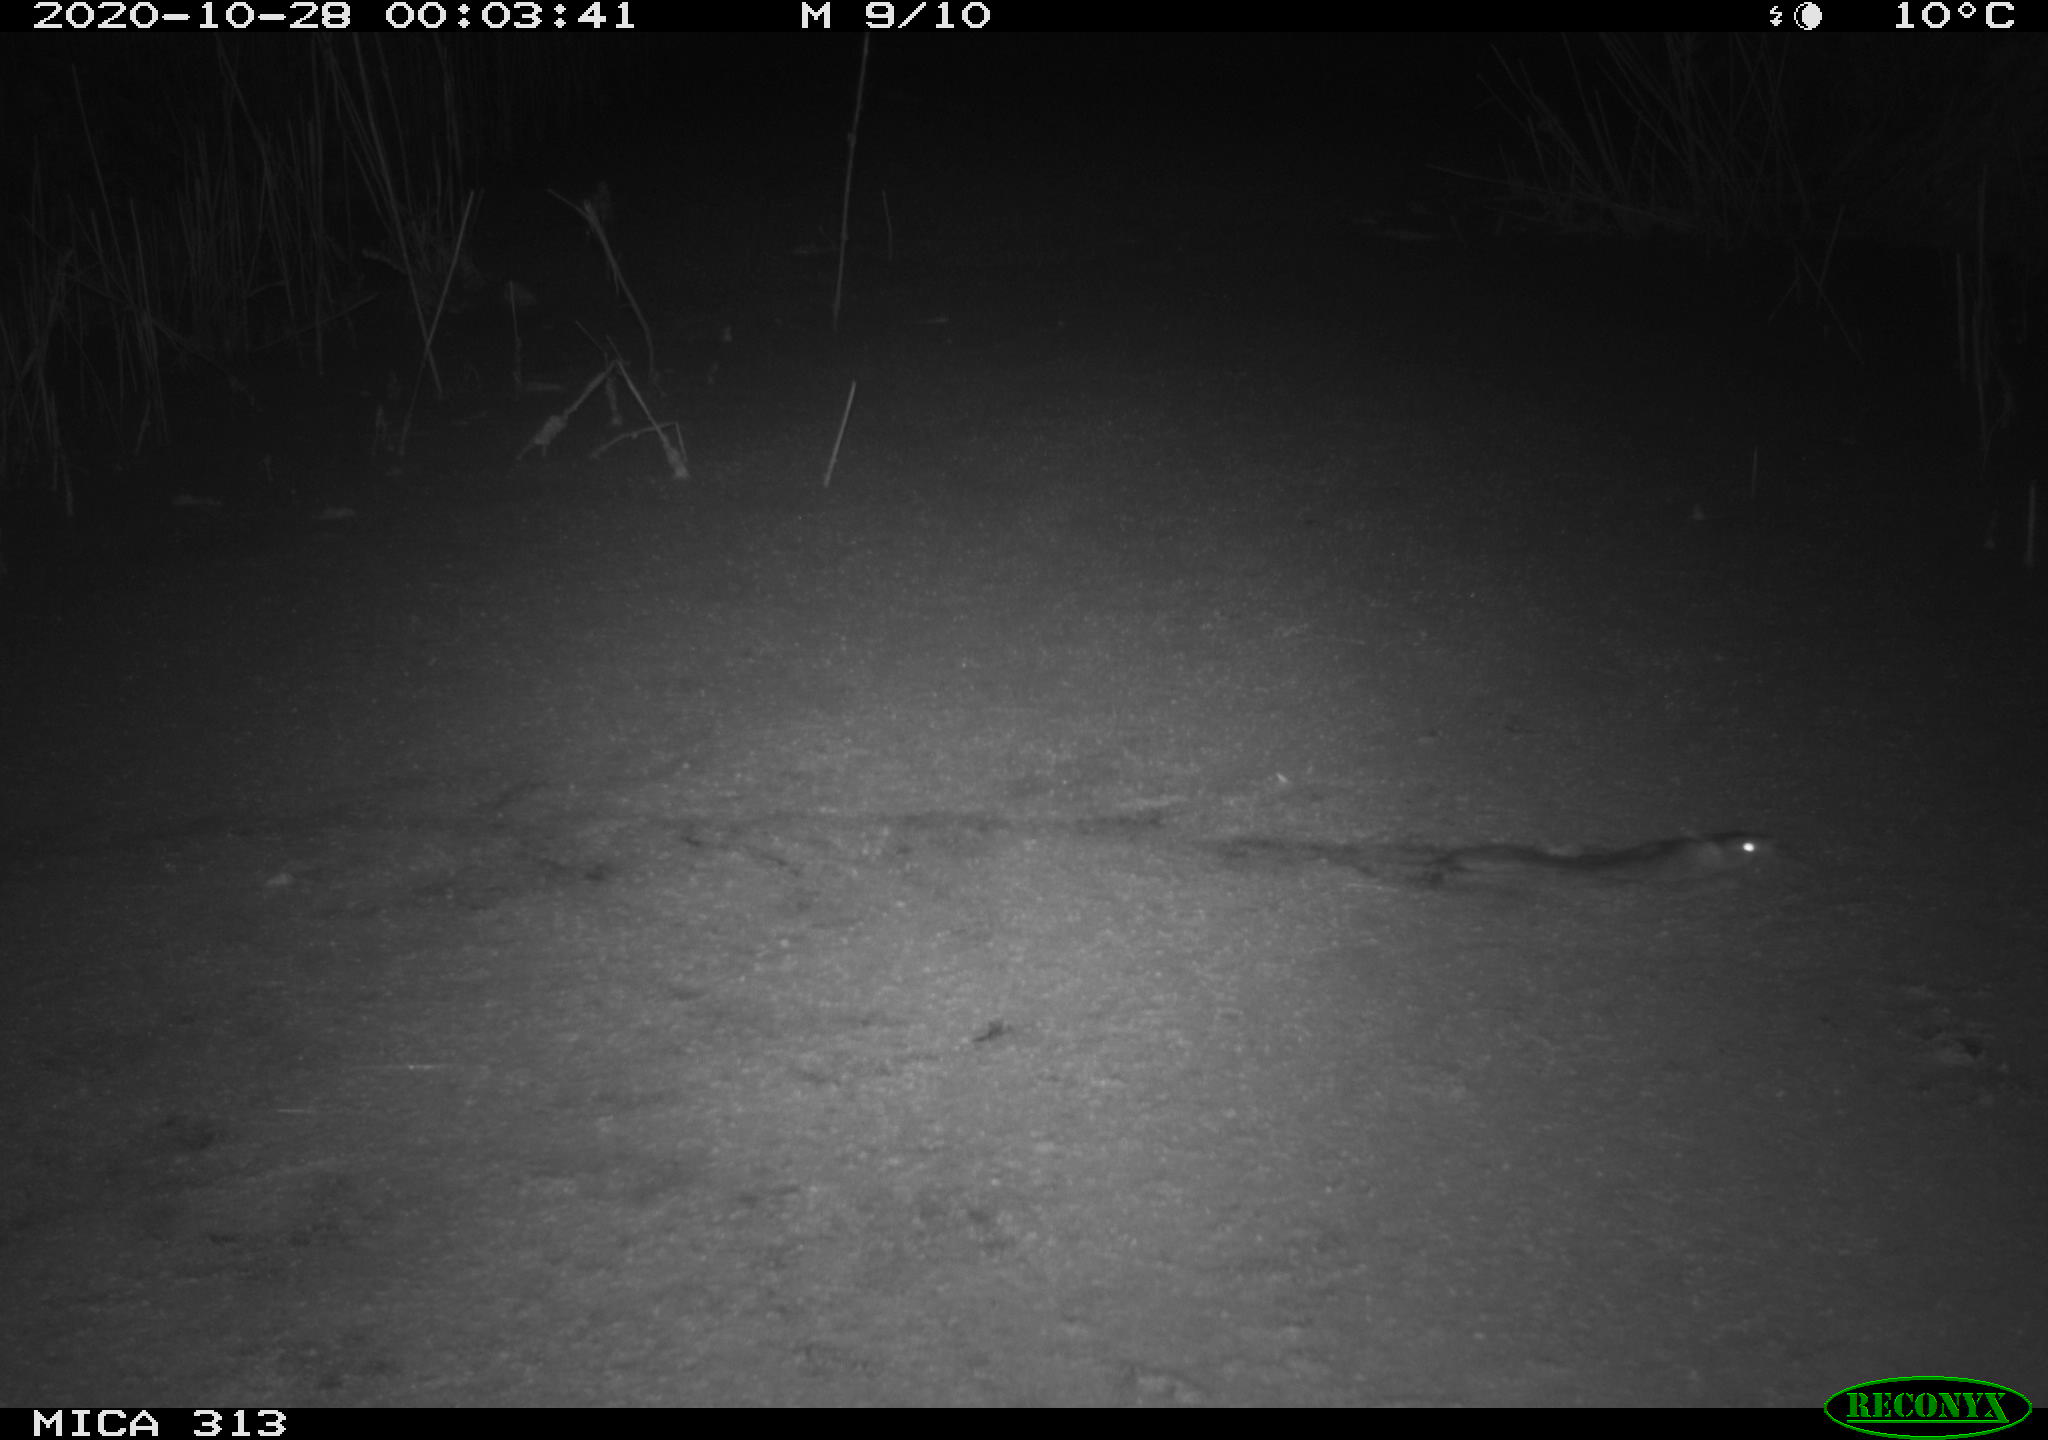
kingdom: Animalia
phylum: Chordata
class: Mammalia
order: Rodentia
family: Muridae
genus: Rattus
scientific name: Rattus norvegicus
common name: Brown rat
